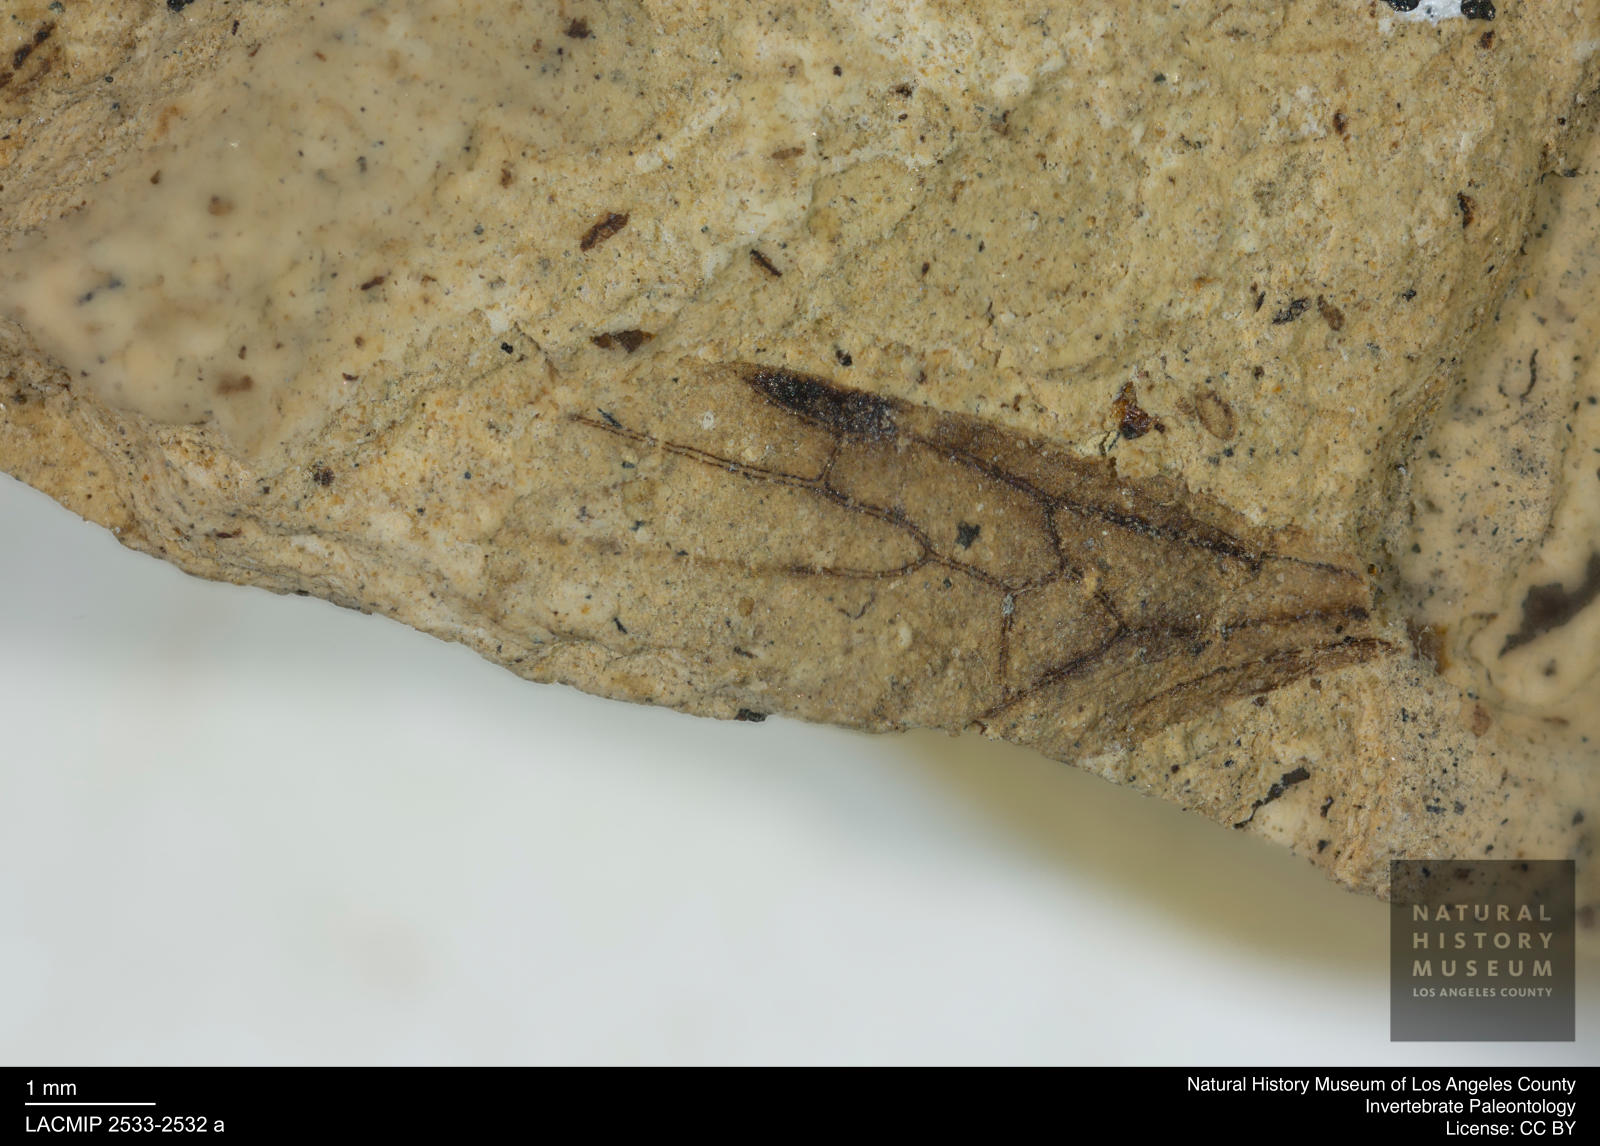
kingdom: Animalia
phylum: Arthropoda
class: Insecta
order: Hymenoptera
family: Formicidae
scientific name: Formicidae
